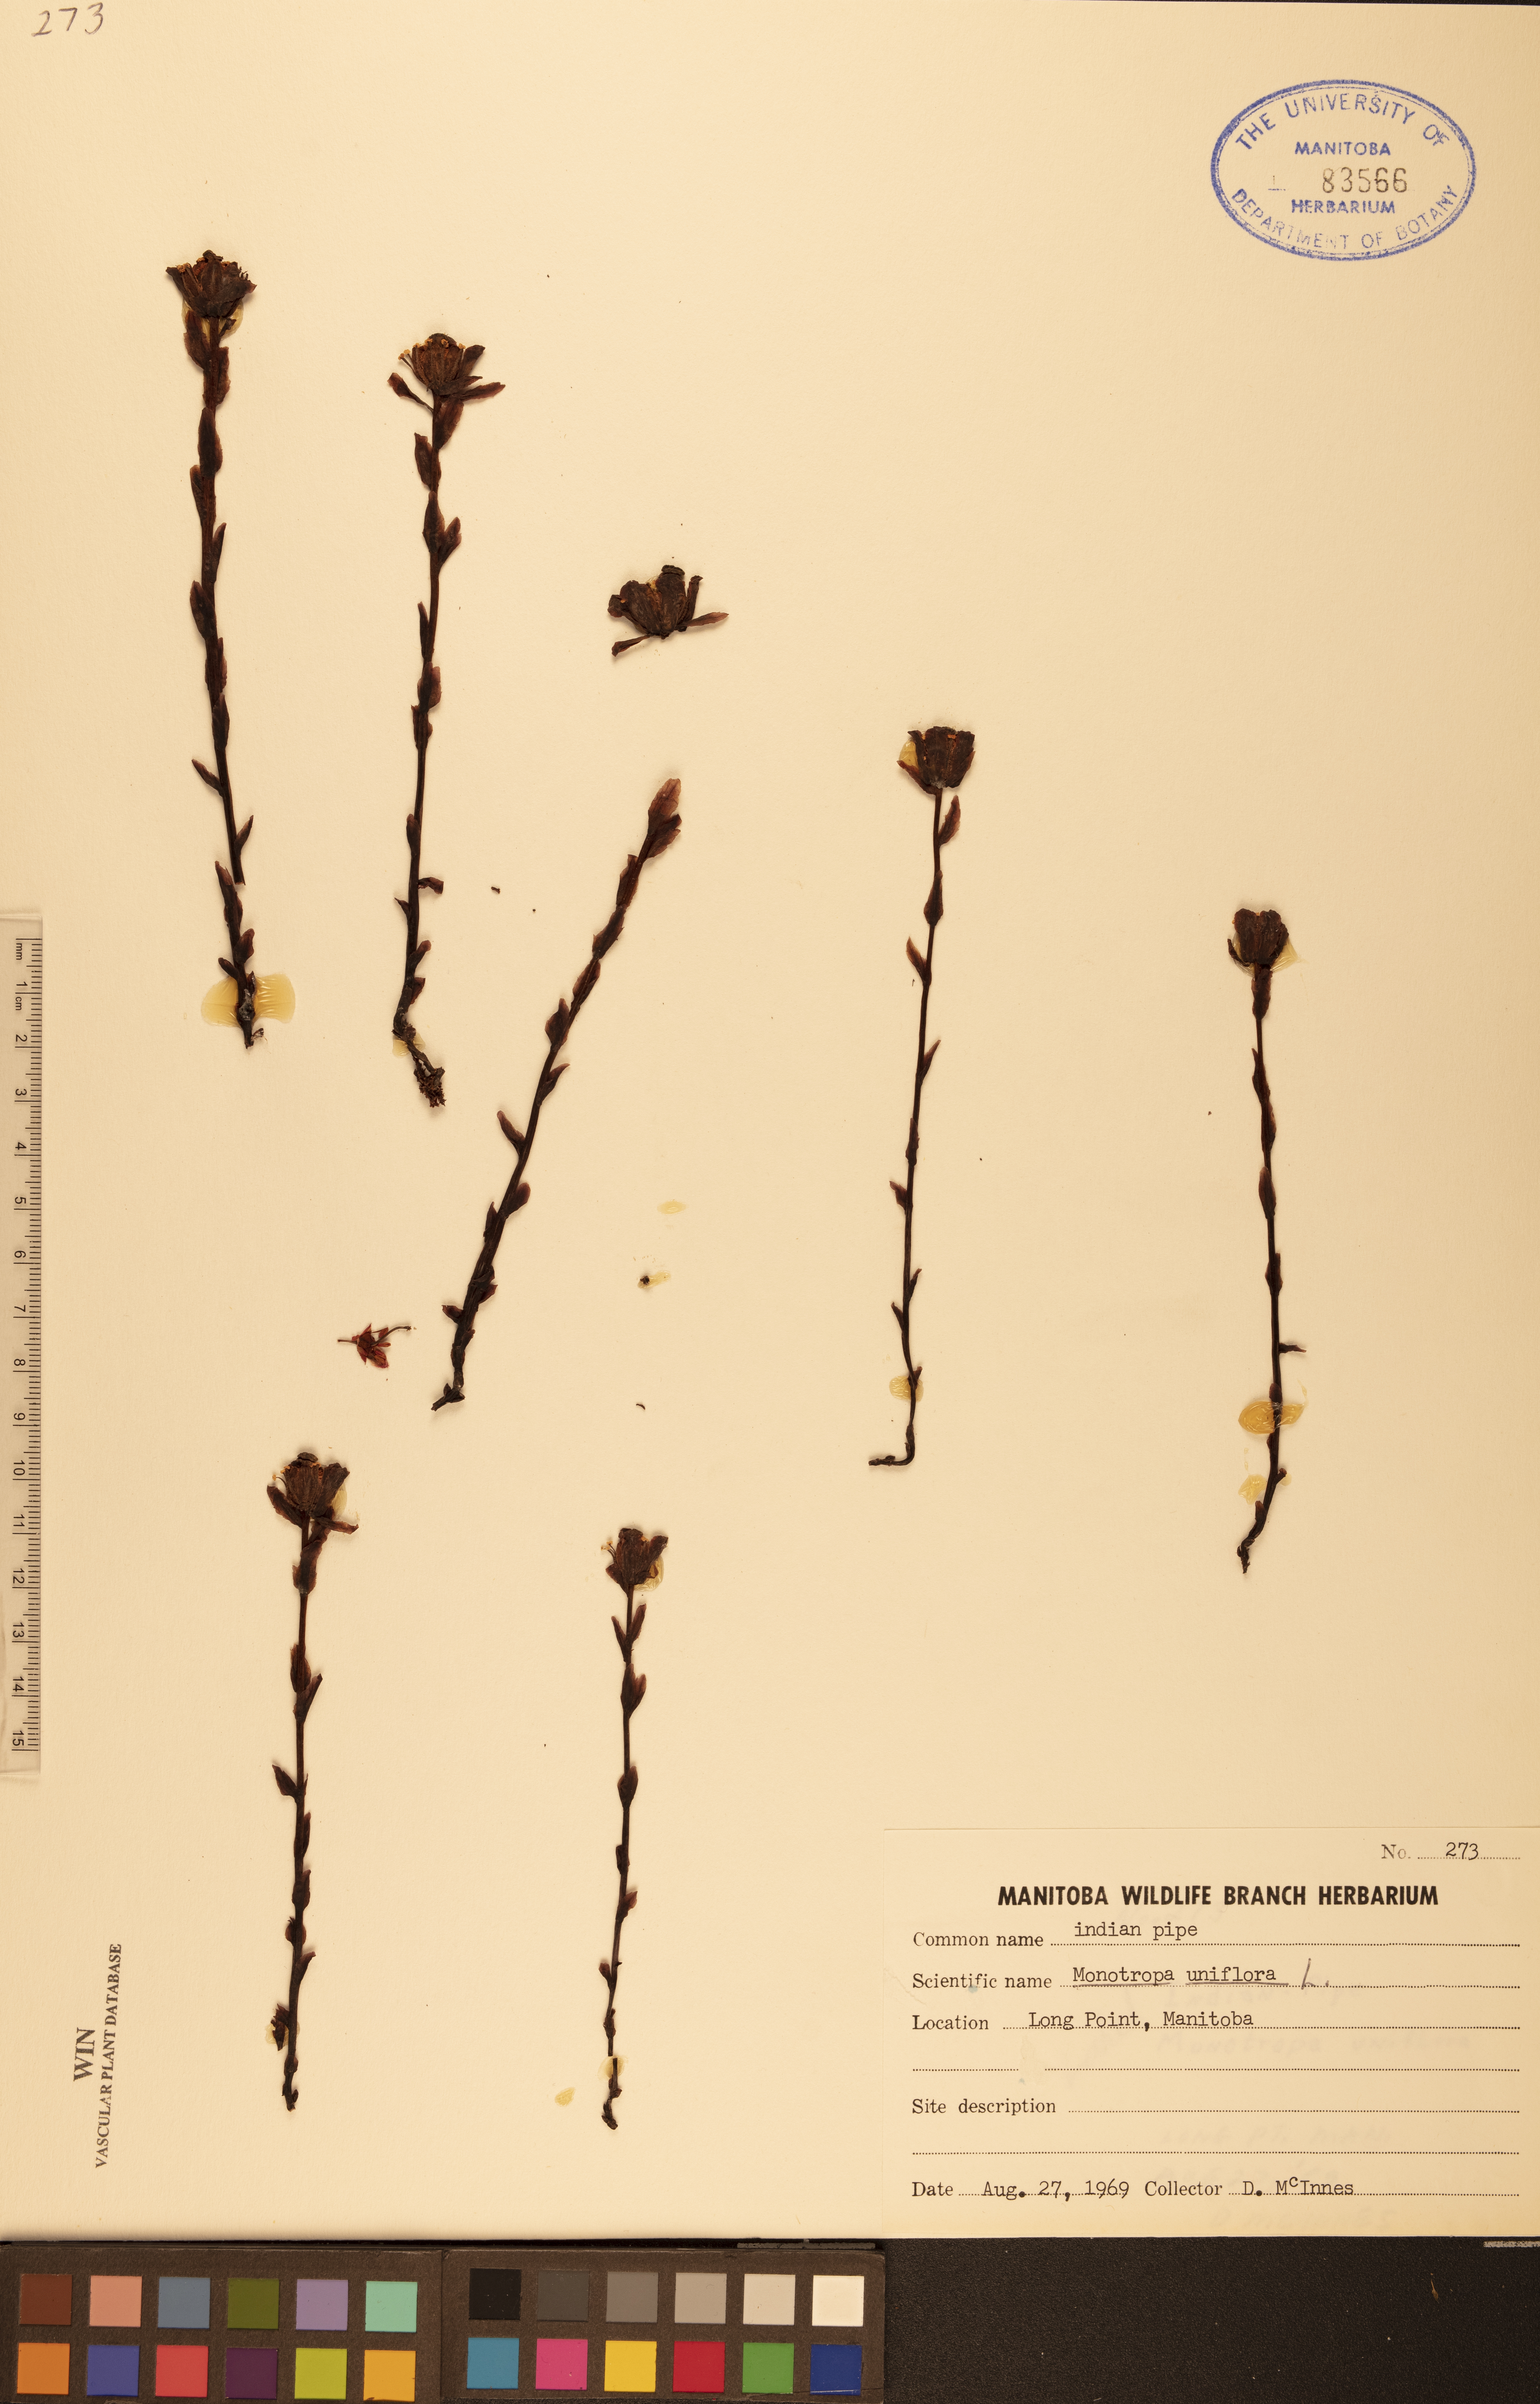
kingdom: Plantae
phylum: Tracheophyta
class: Magnoliopsida
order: Ericales
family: Ericaceae
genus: Monotropa
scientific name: Monotropa uniflora
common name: Convulsion root
